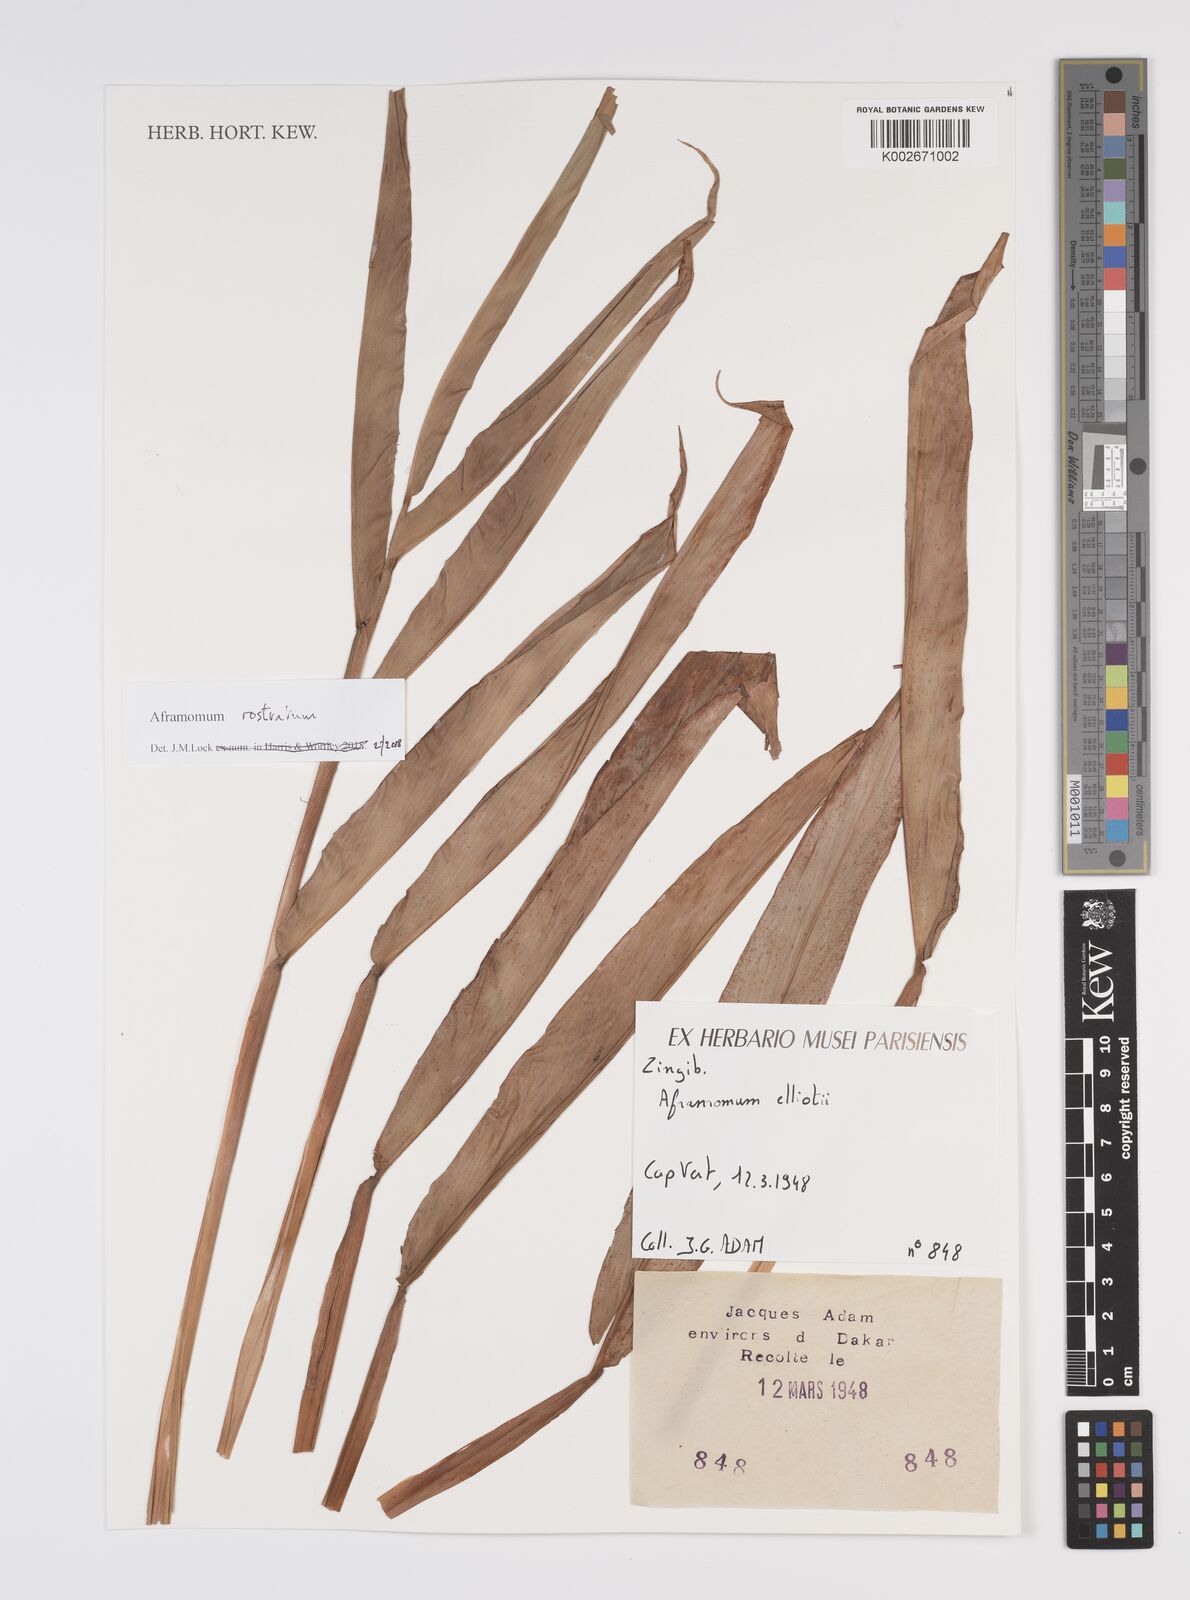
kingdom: Plantae
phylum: Tracheophyta
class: Liliopsida
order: Zingiberales
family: Zingiberaceae
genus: Aframomum
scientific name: Aframomum rostratum
